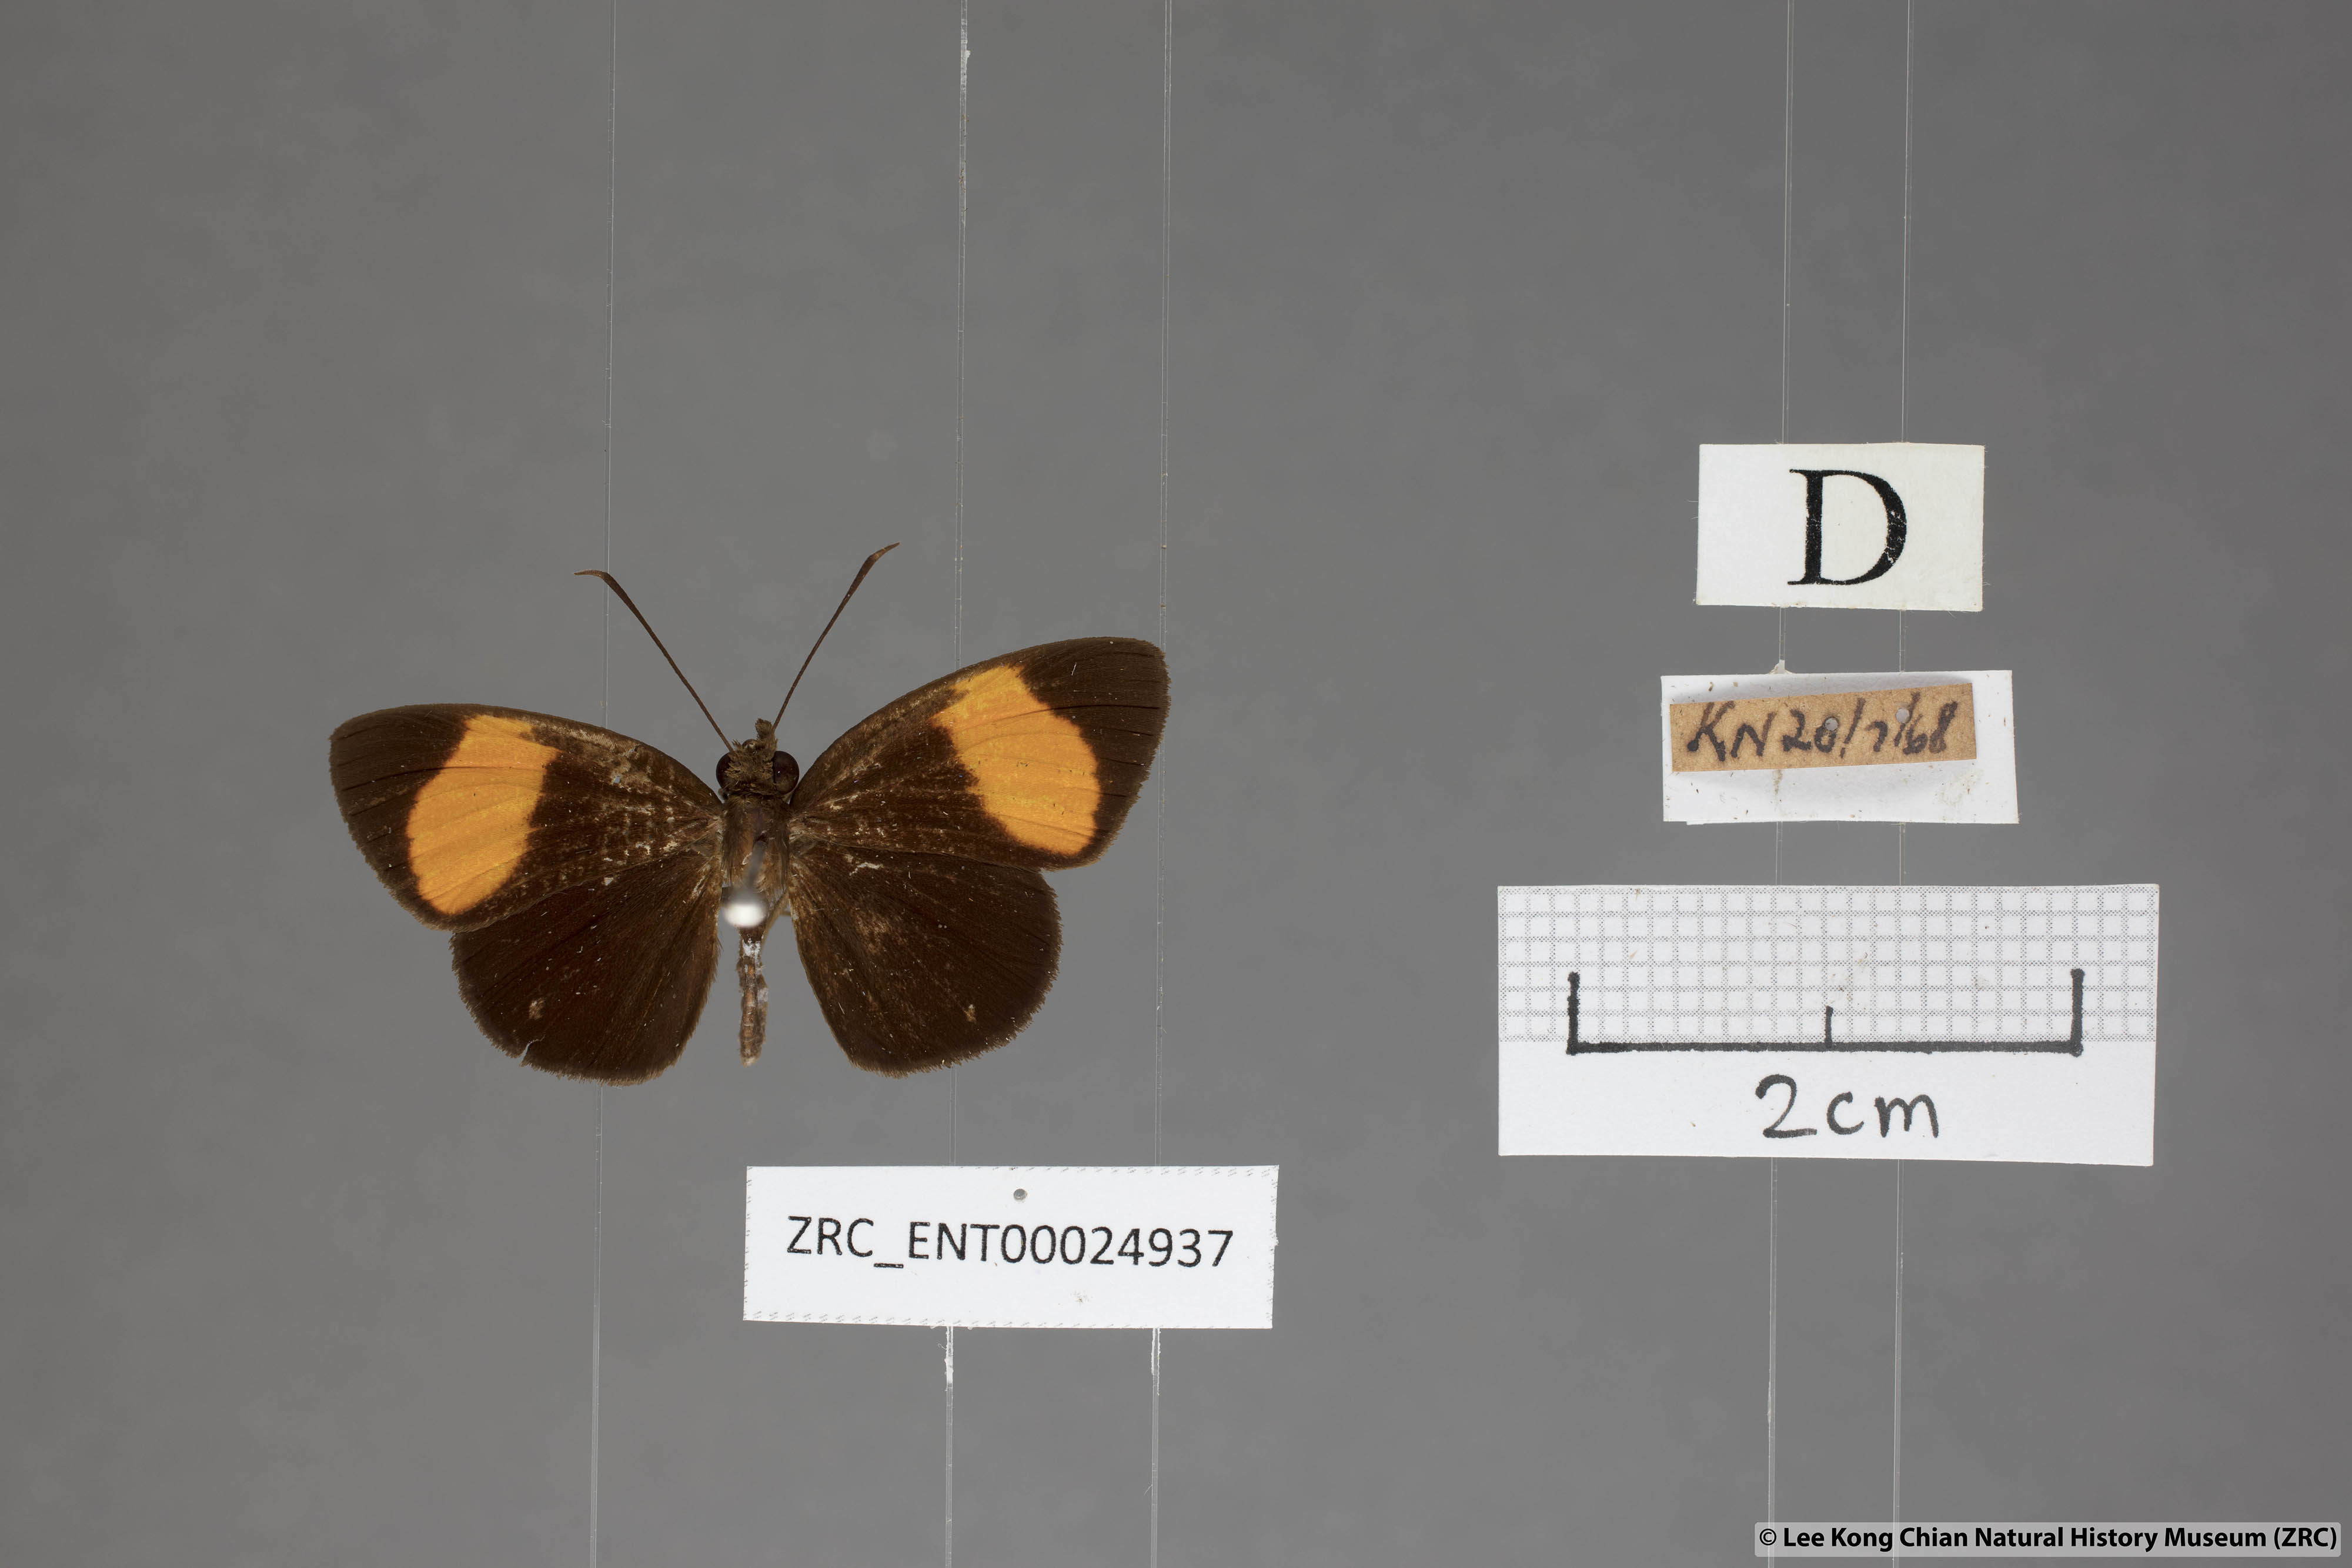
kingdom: Animalia
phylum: Arthropoda
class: Insecta
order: Lepidoptera
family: Hesperiidae
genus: Koruthaialos
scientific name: Koruthaialos sindu
